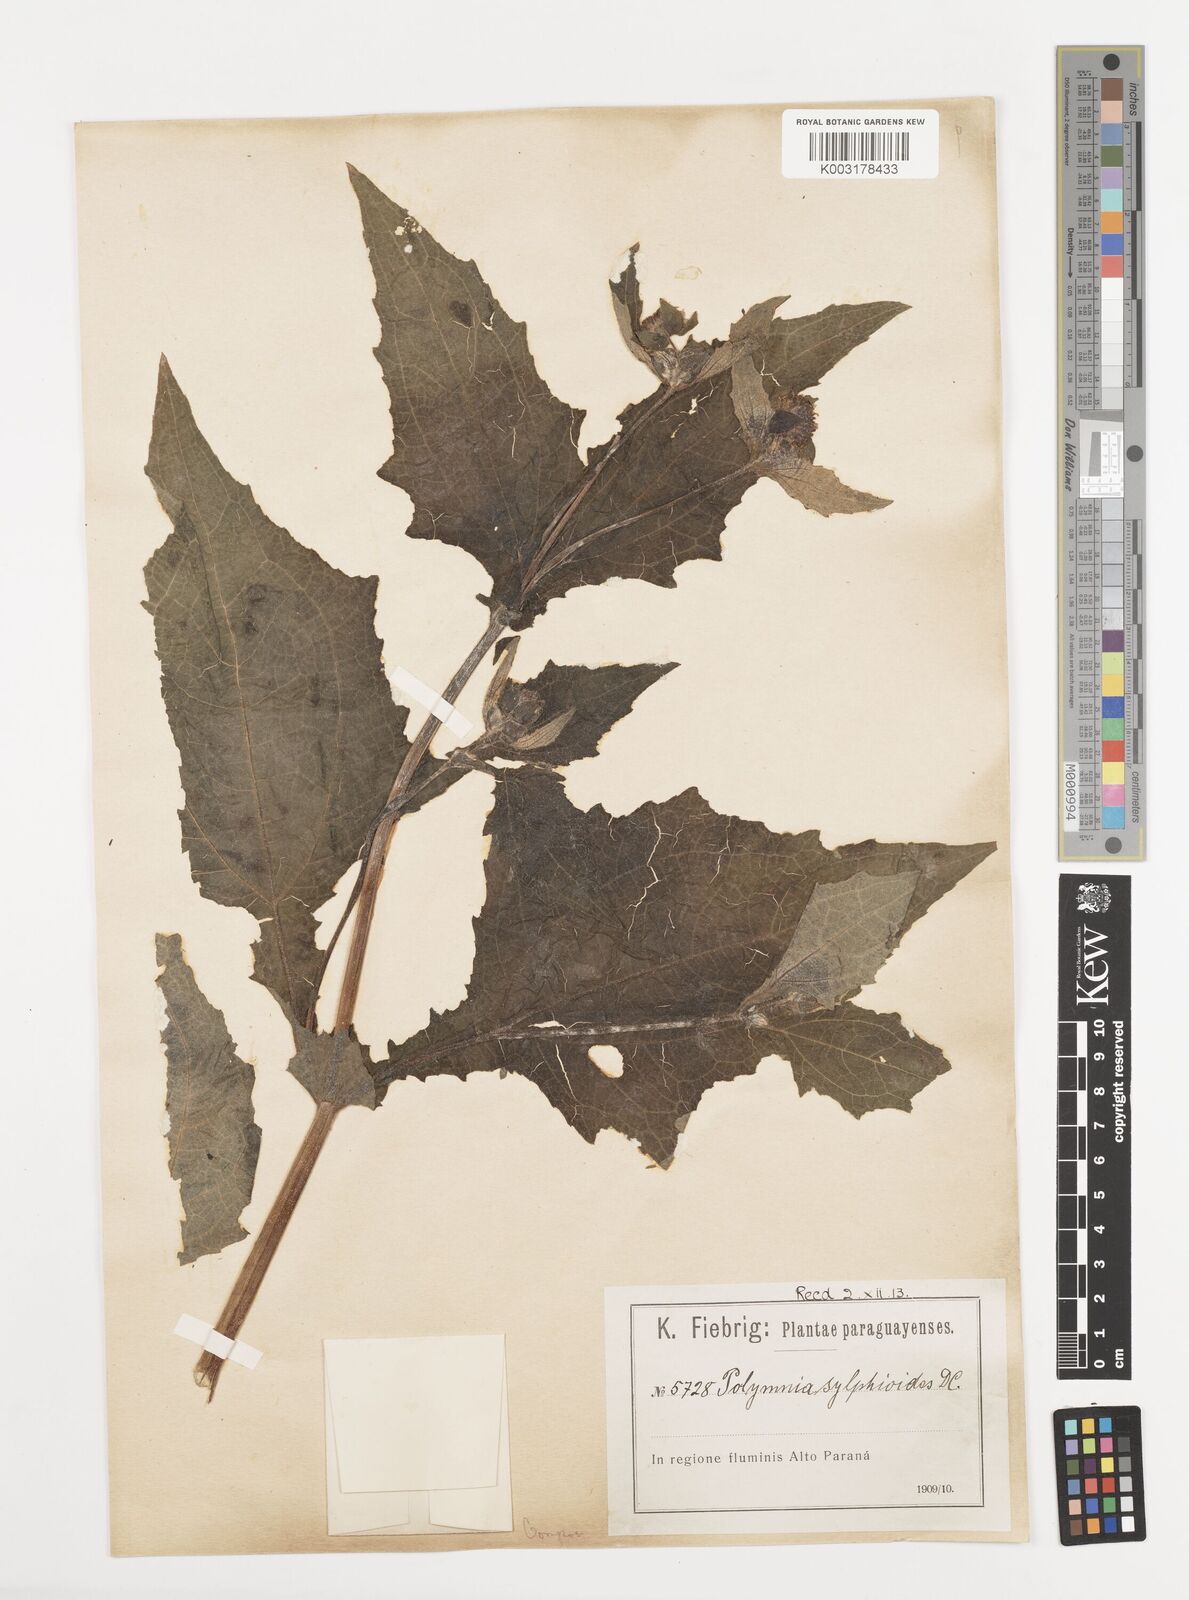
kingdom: Plantae
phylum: Tracheophyta
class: Magnoliopsida
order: Asterales
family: Asteraceae
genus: Smallanthus
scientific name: Smallanthus connatus
